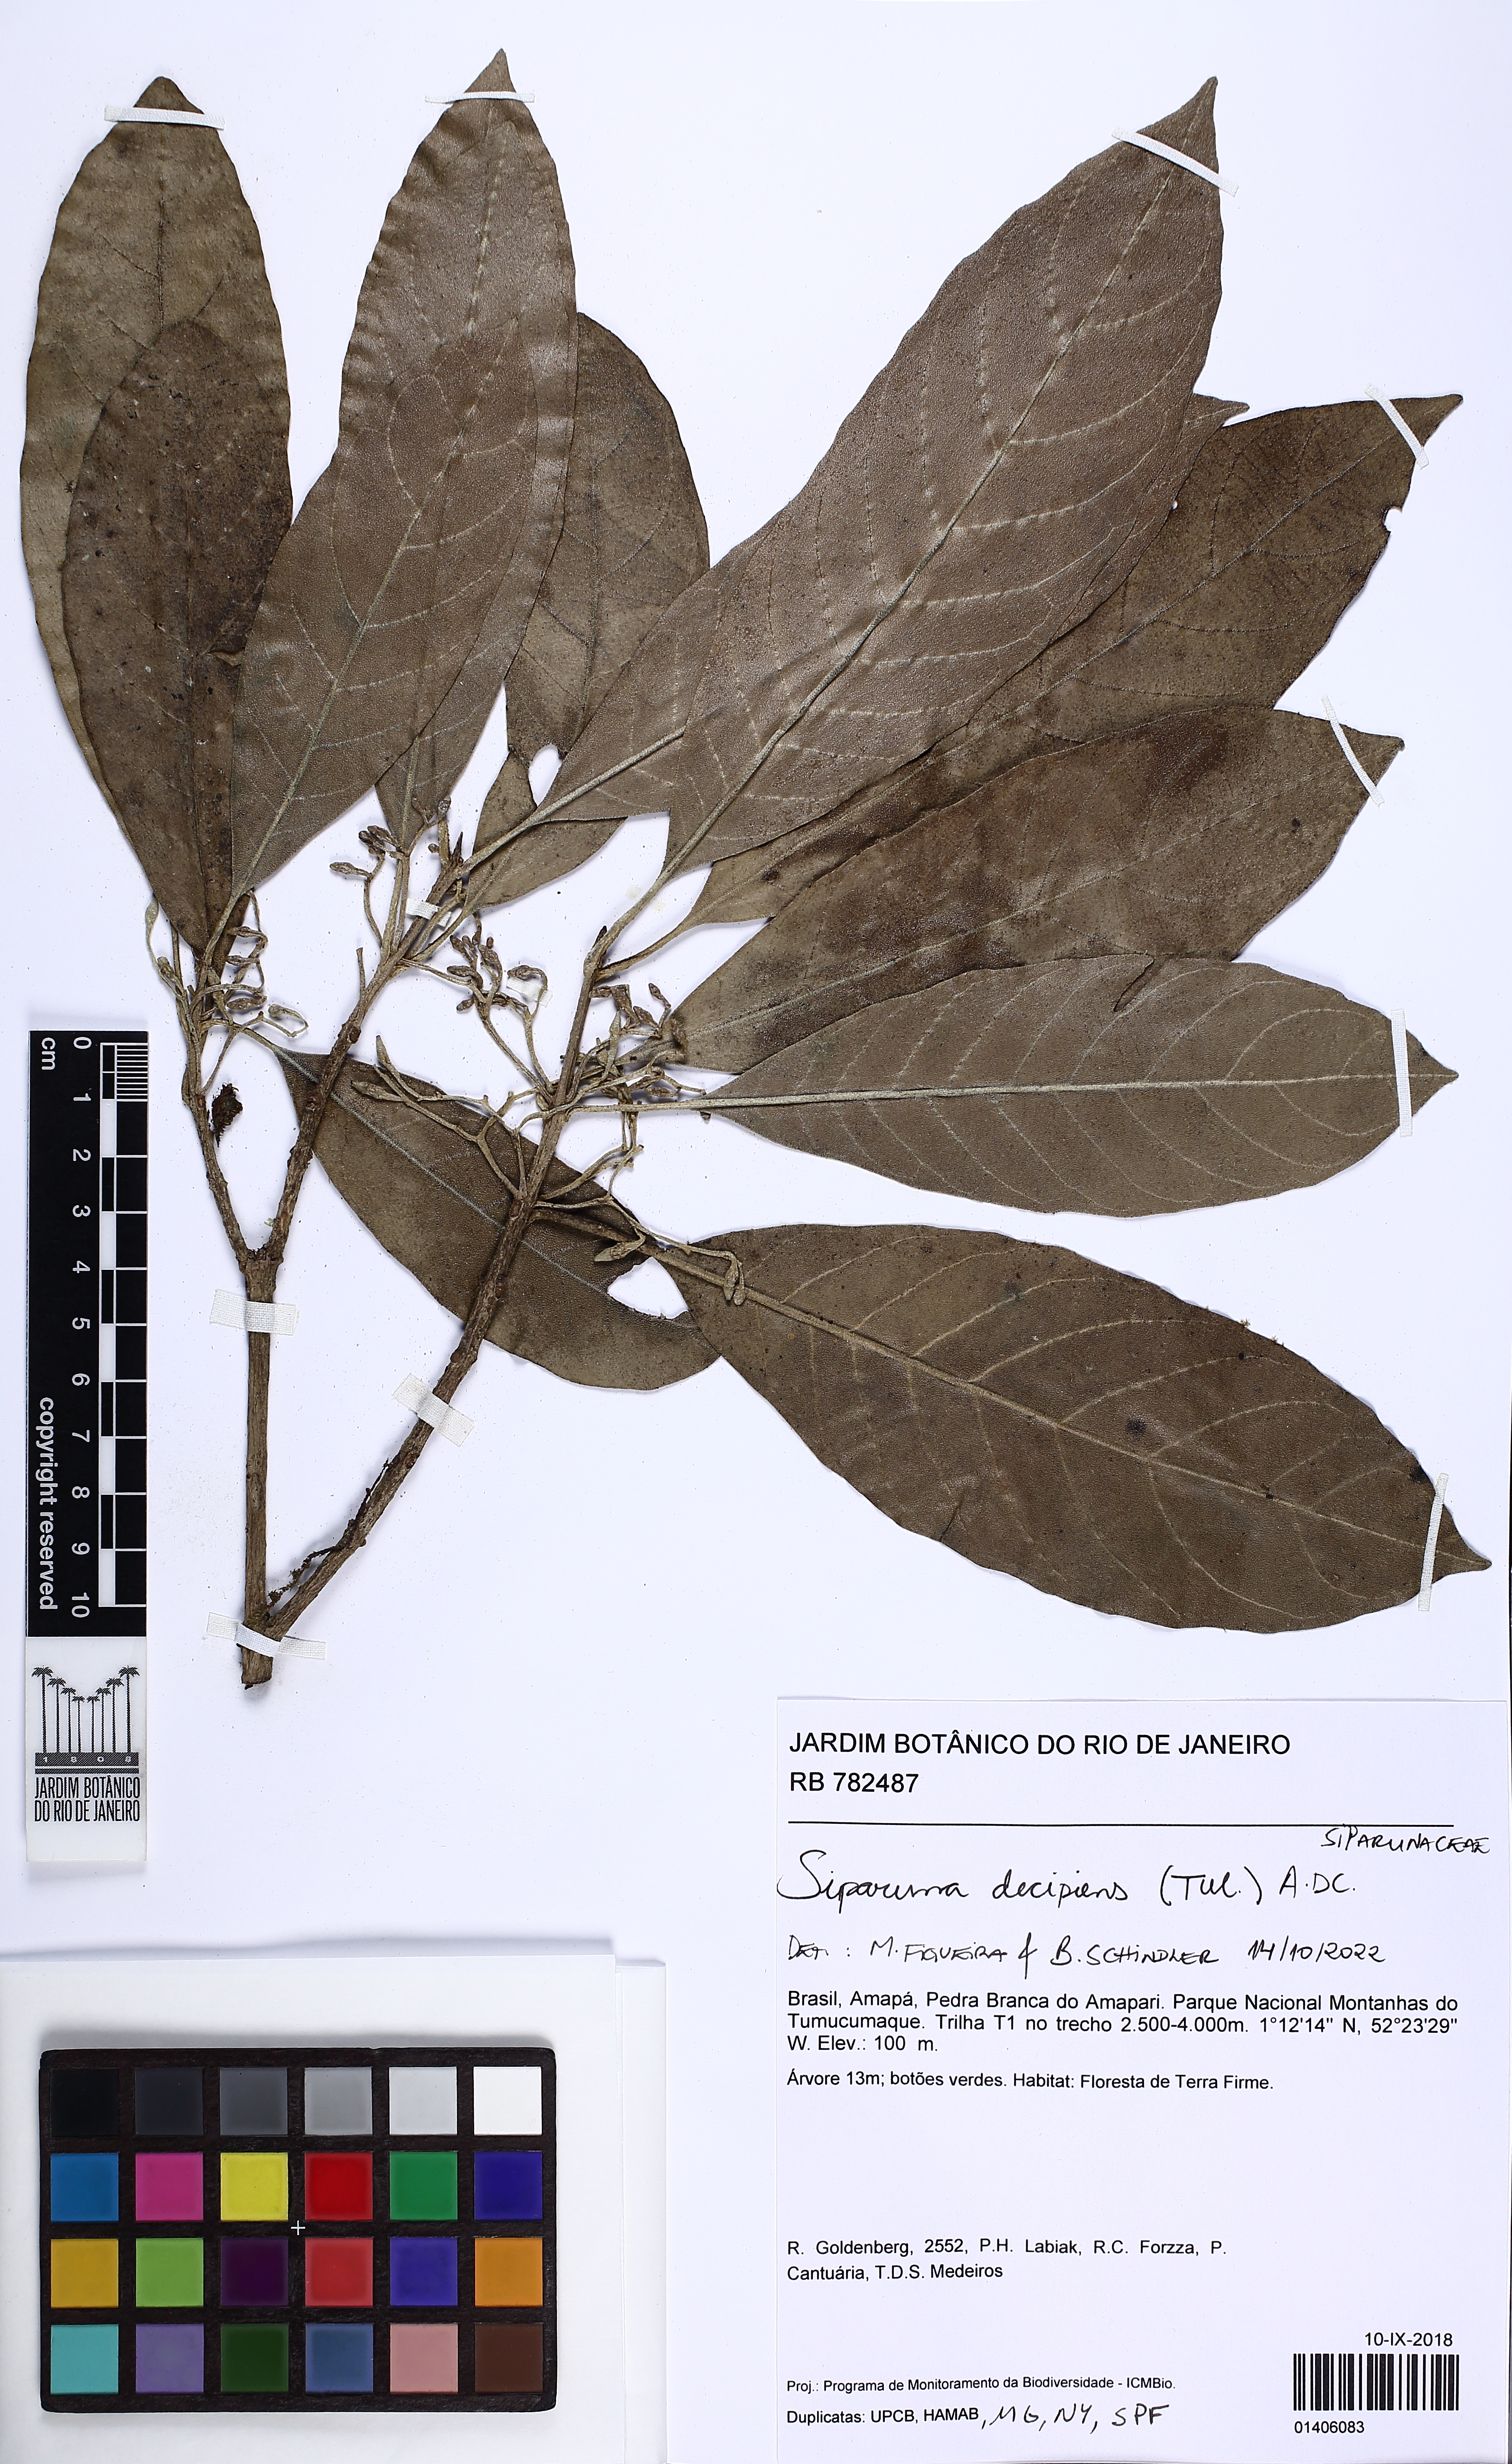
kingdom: Plantae
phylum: Tracheophyta
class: Magnoliopsida
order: Laurales
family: Siparunaceae
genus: Siparuna
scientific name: Siparuna decipiens
